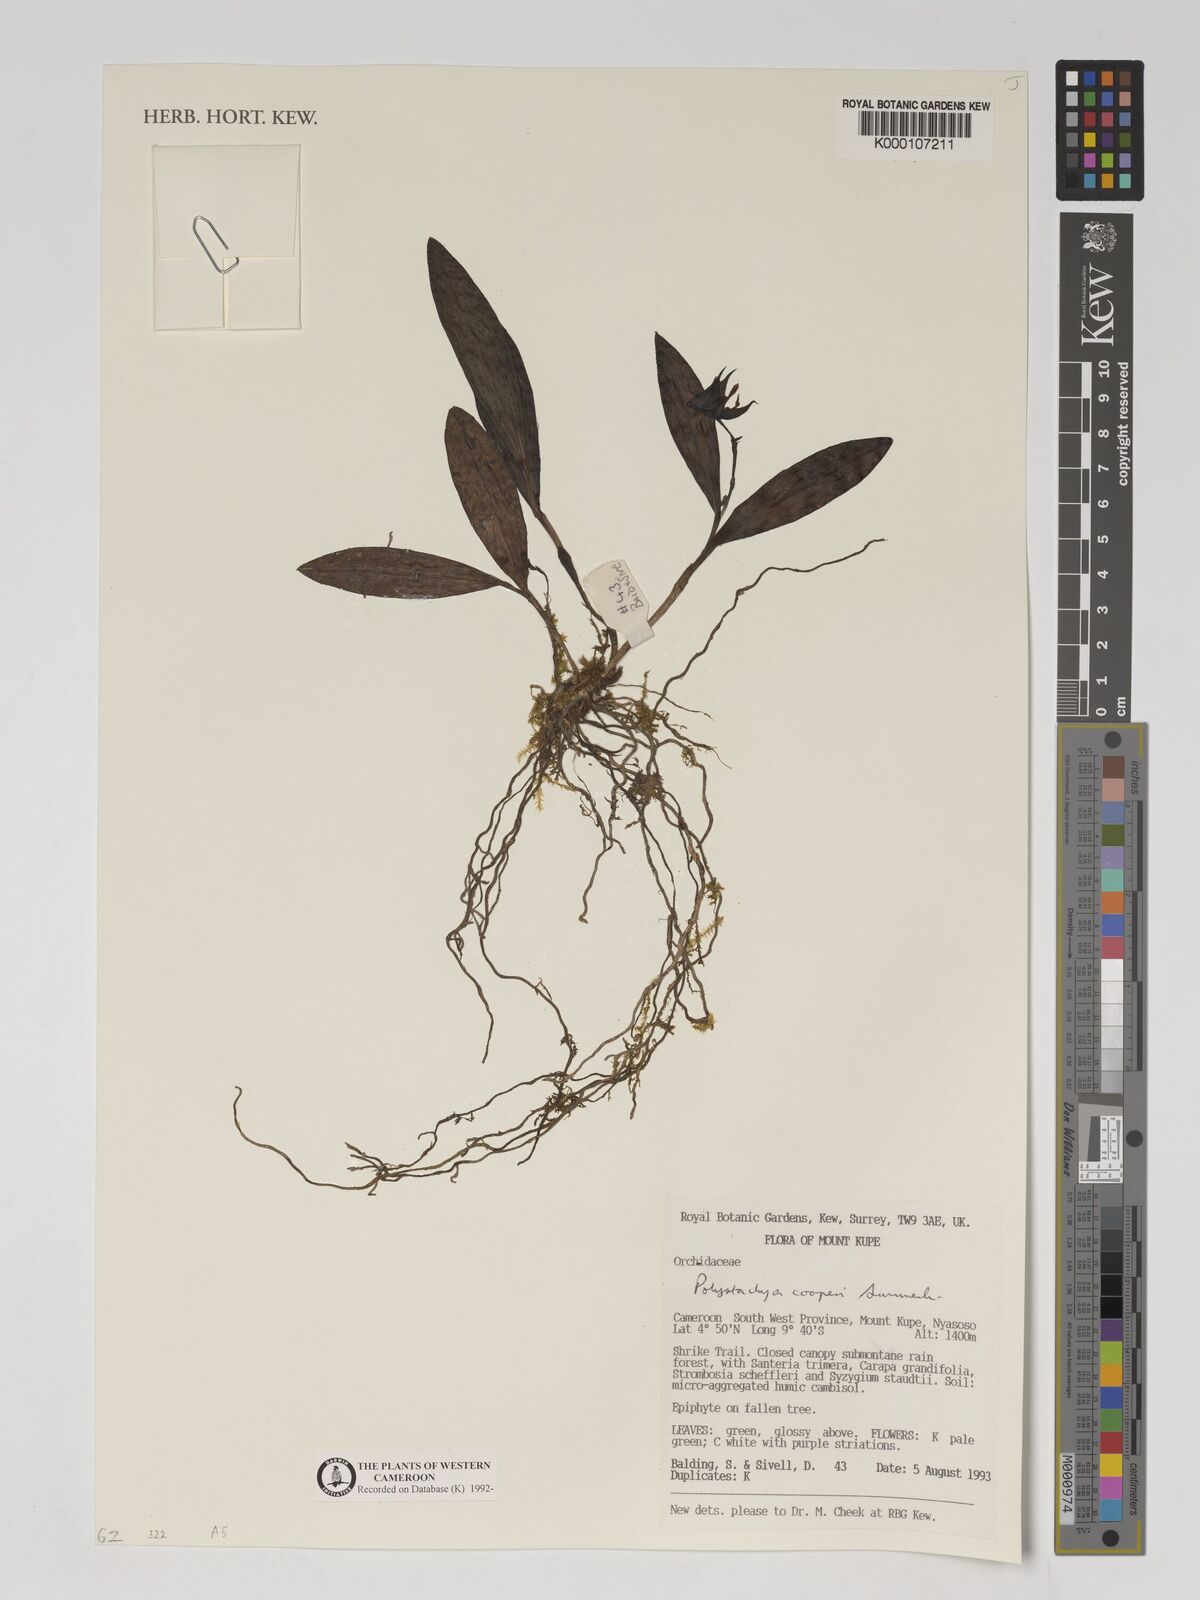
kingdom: Plantae
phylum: Tracheophyta
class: Liliopsida
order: Asparagales
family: Orchidaceae
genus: Polystachya
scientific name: Polystachya cooperi
